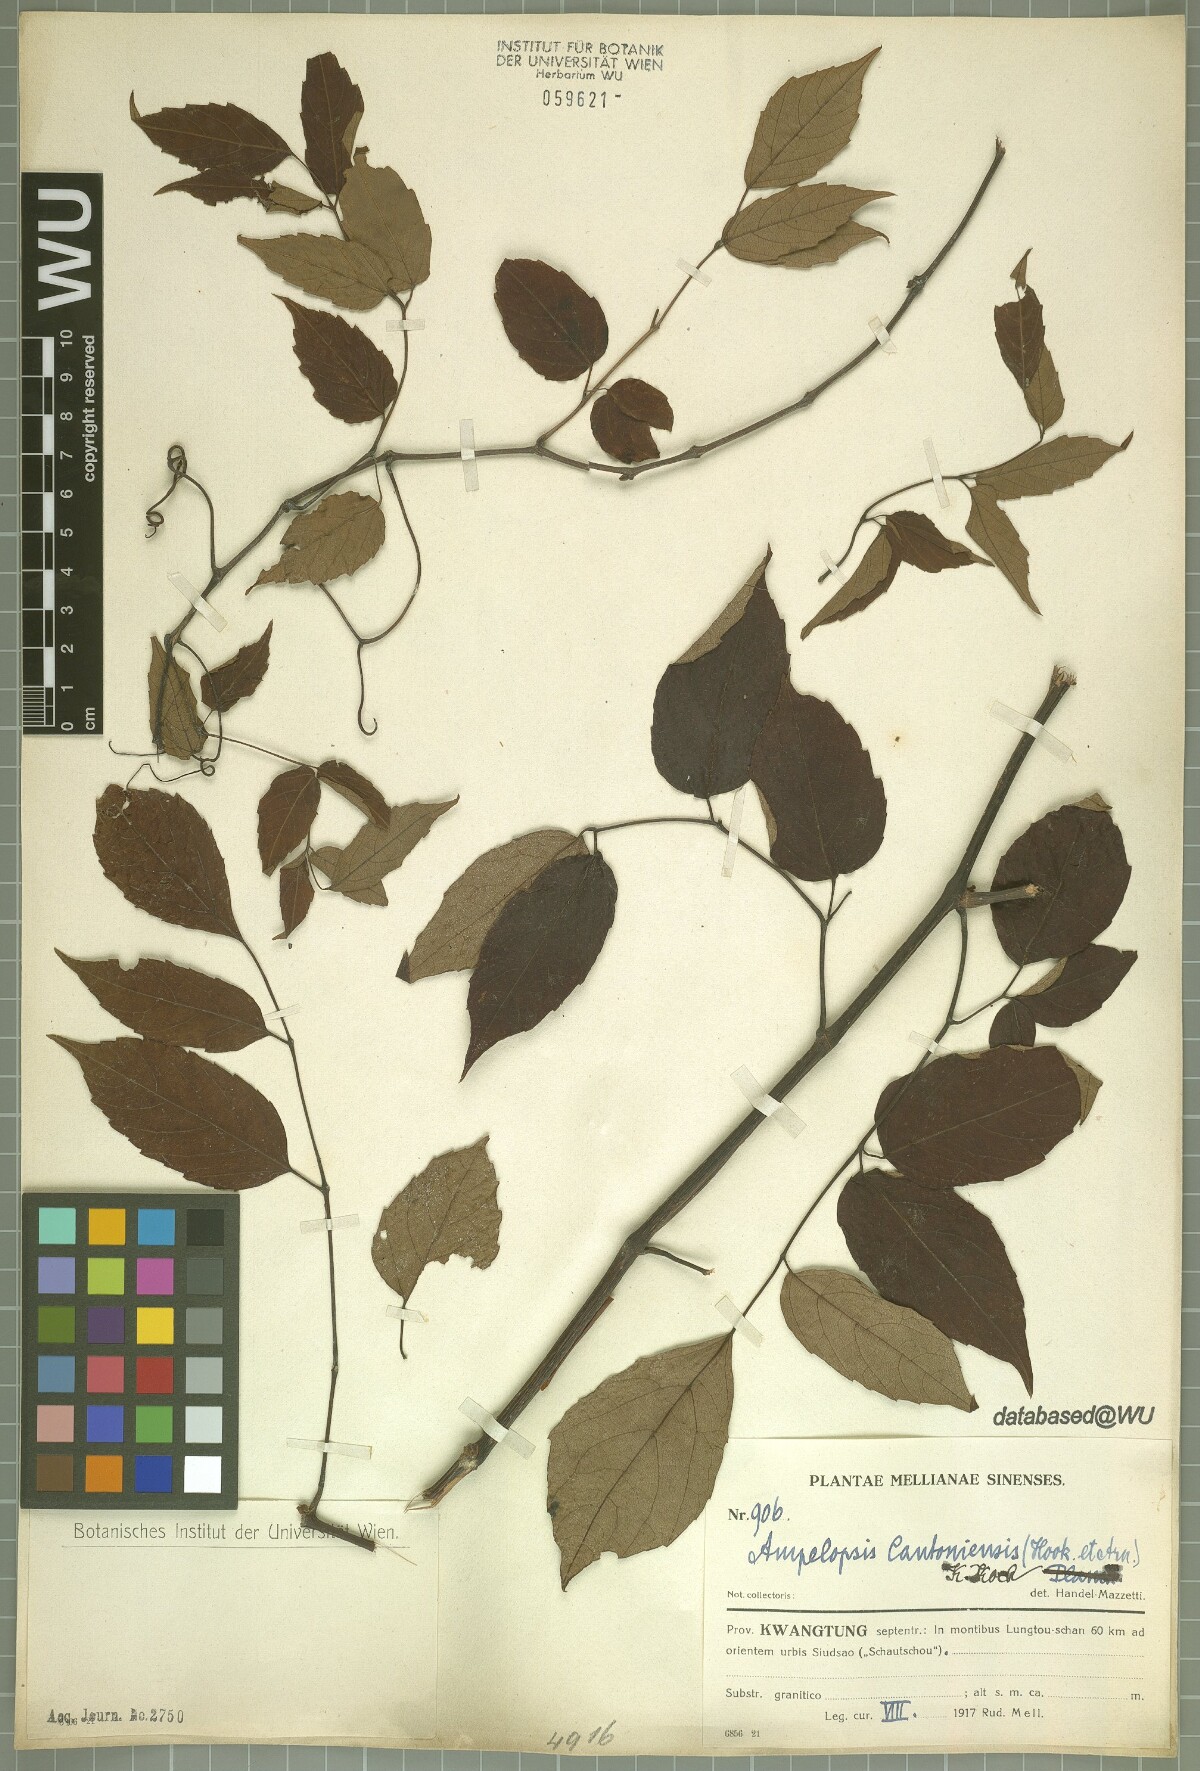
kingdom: Plantae
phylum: Tracheophyta
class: Magnoliopsida
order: Vitales
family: Vitaceae
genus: Nekemias
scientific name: Nekemias cantoniensis
